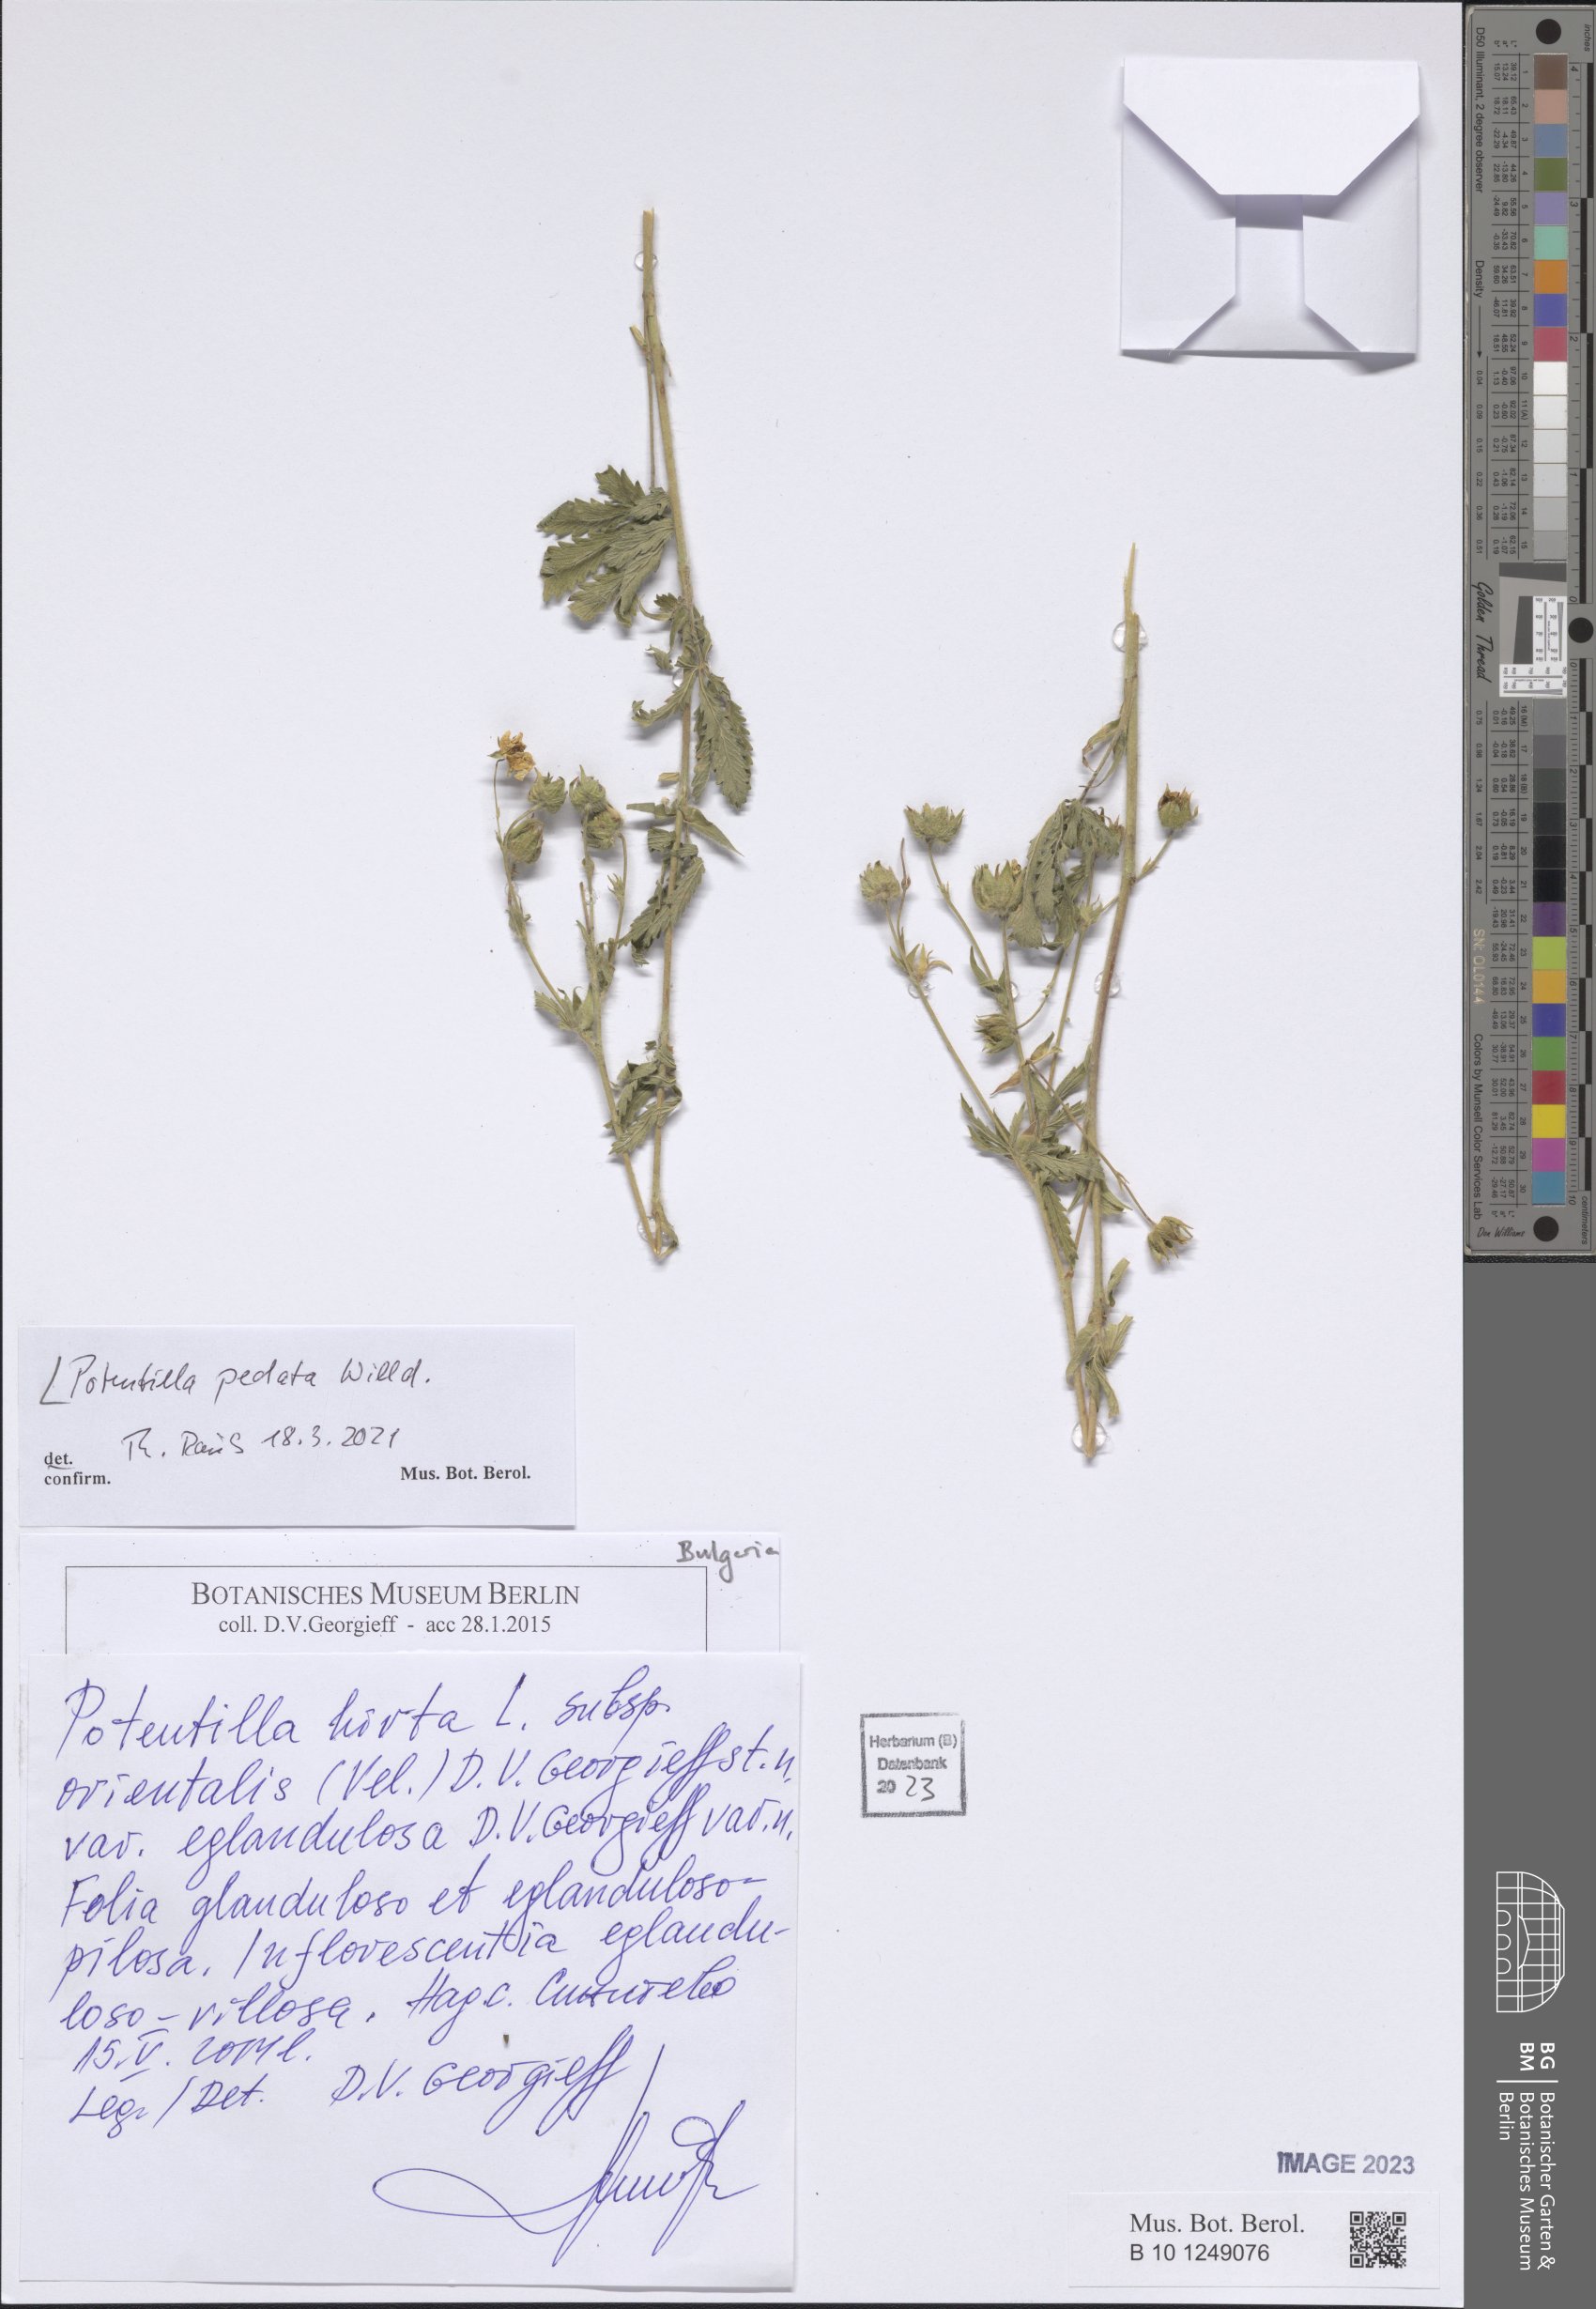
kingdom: Plantae
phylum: Tracheophyta
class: Magnoliopsida
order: Rosales
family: Rosaceae
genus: Potentilla
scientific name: Potentilla pedata
